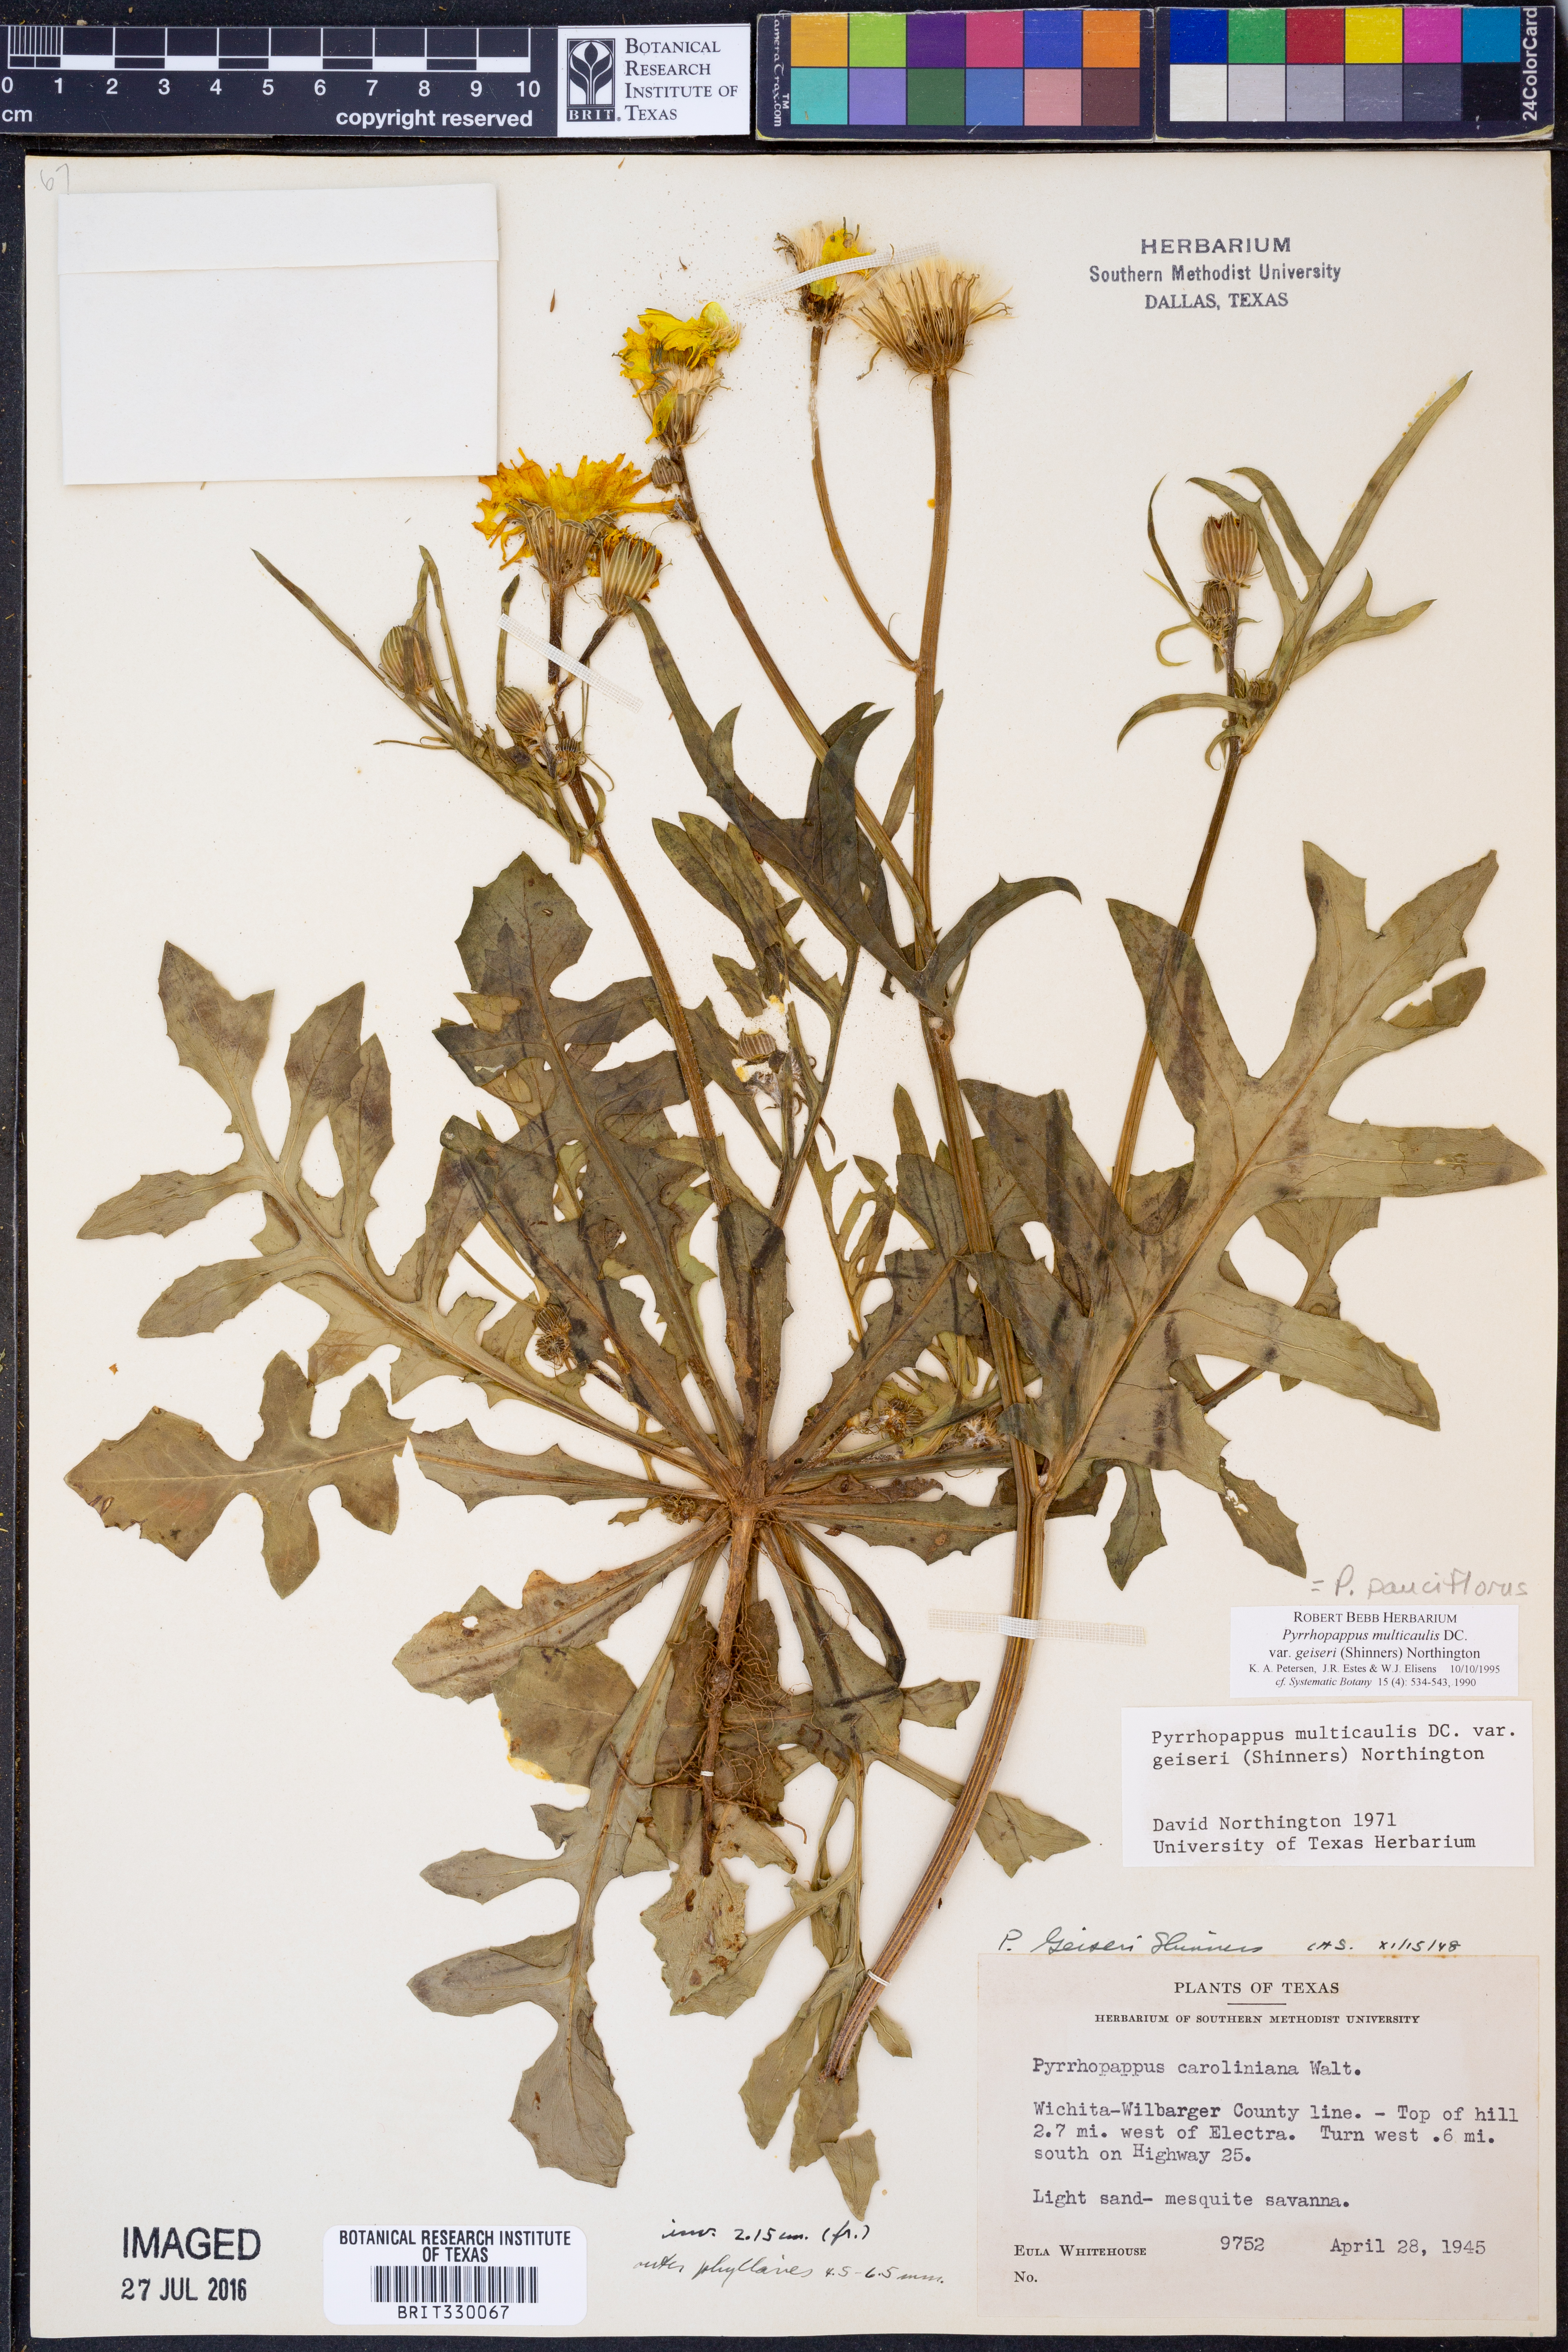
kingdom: Plantae
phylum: Tracheophyta
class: Magnoliopsida
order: Asterales
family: Asteraceae
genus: Pyrrhopappus
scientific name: Pyrrhopappus pauciflorus
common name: Texas false dandelion
